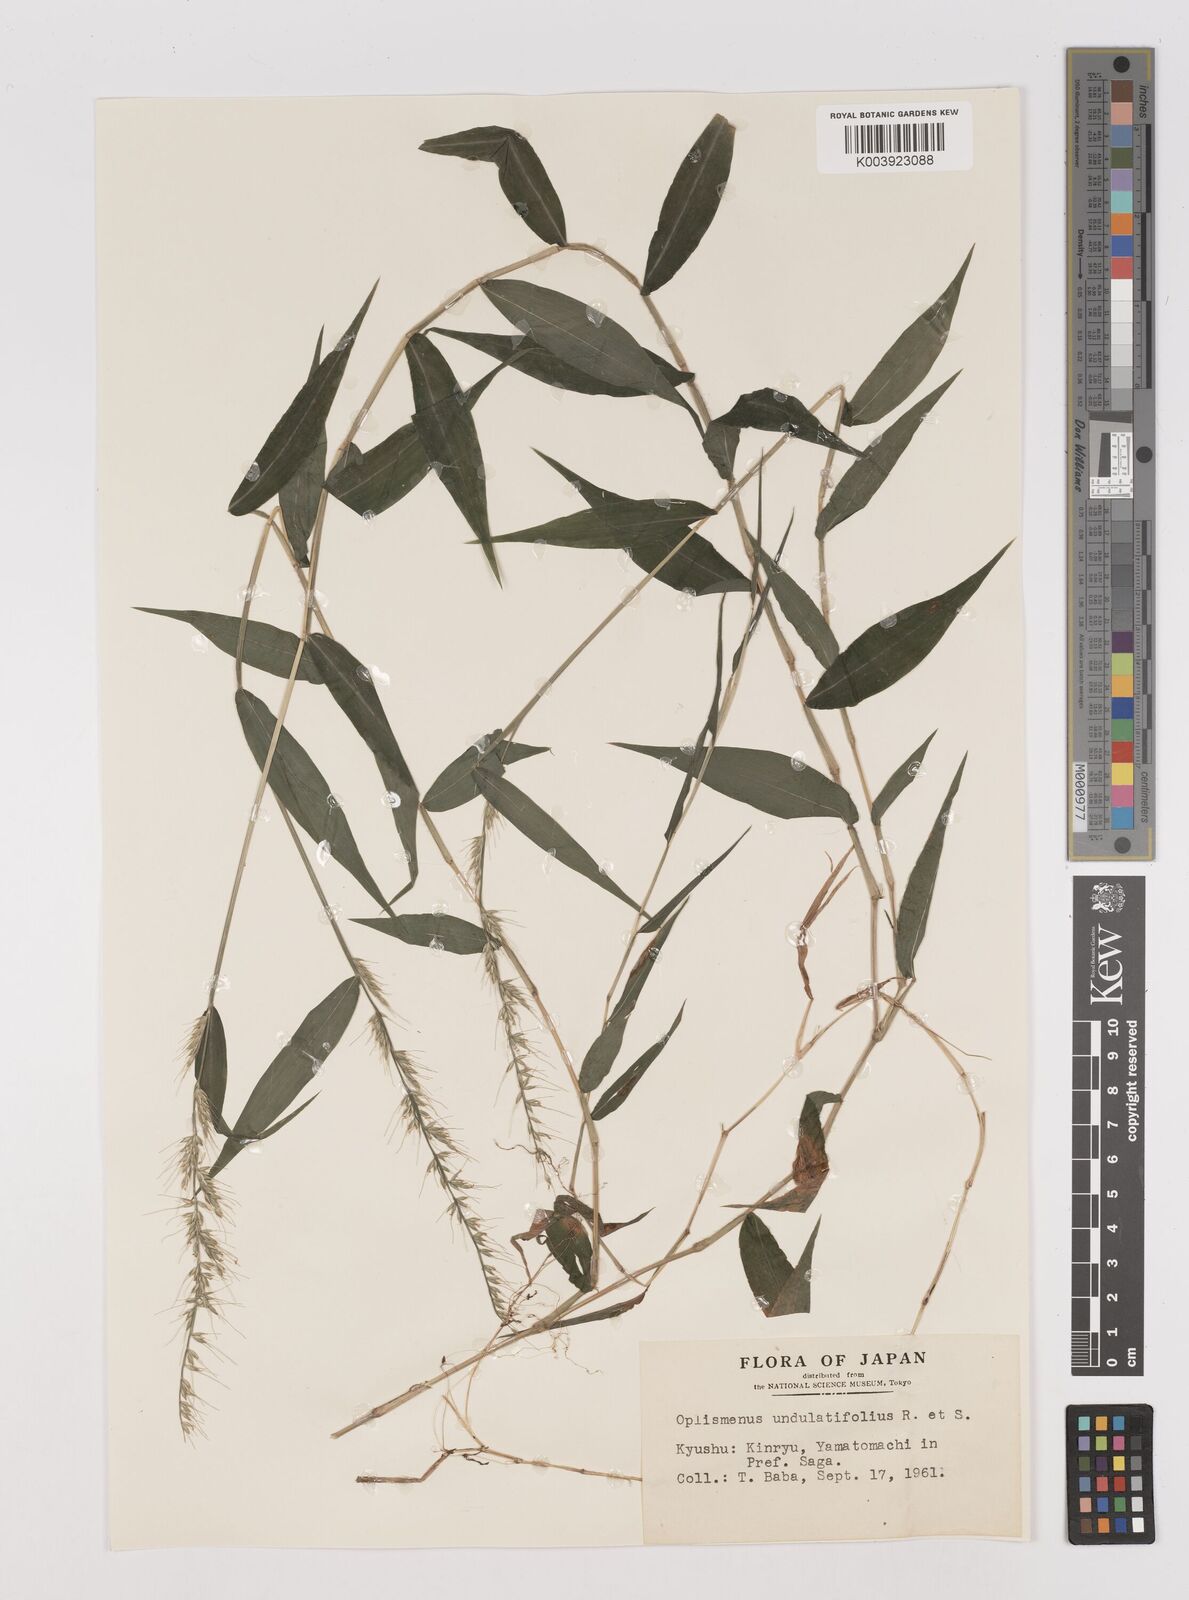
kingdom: Plantae
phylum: Tracheophyta
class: Liliopsida
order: Poales
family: Poaceae
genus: Oplismenus
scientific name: Oplismenus undulatifolius
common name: Wavyleaf basketgrass
